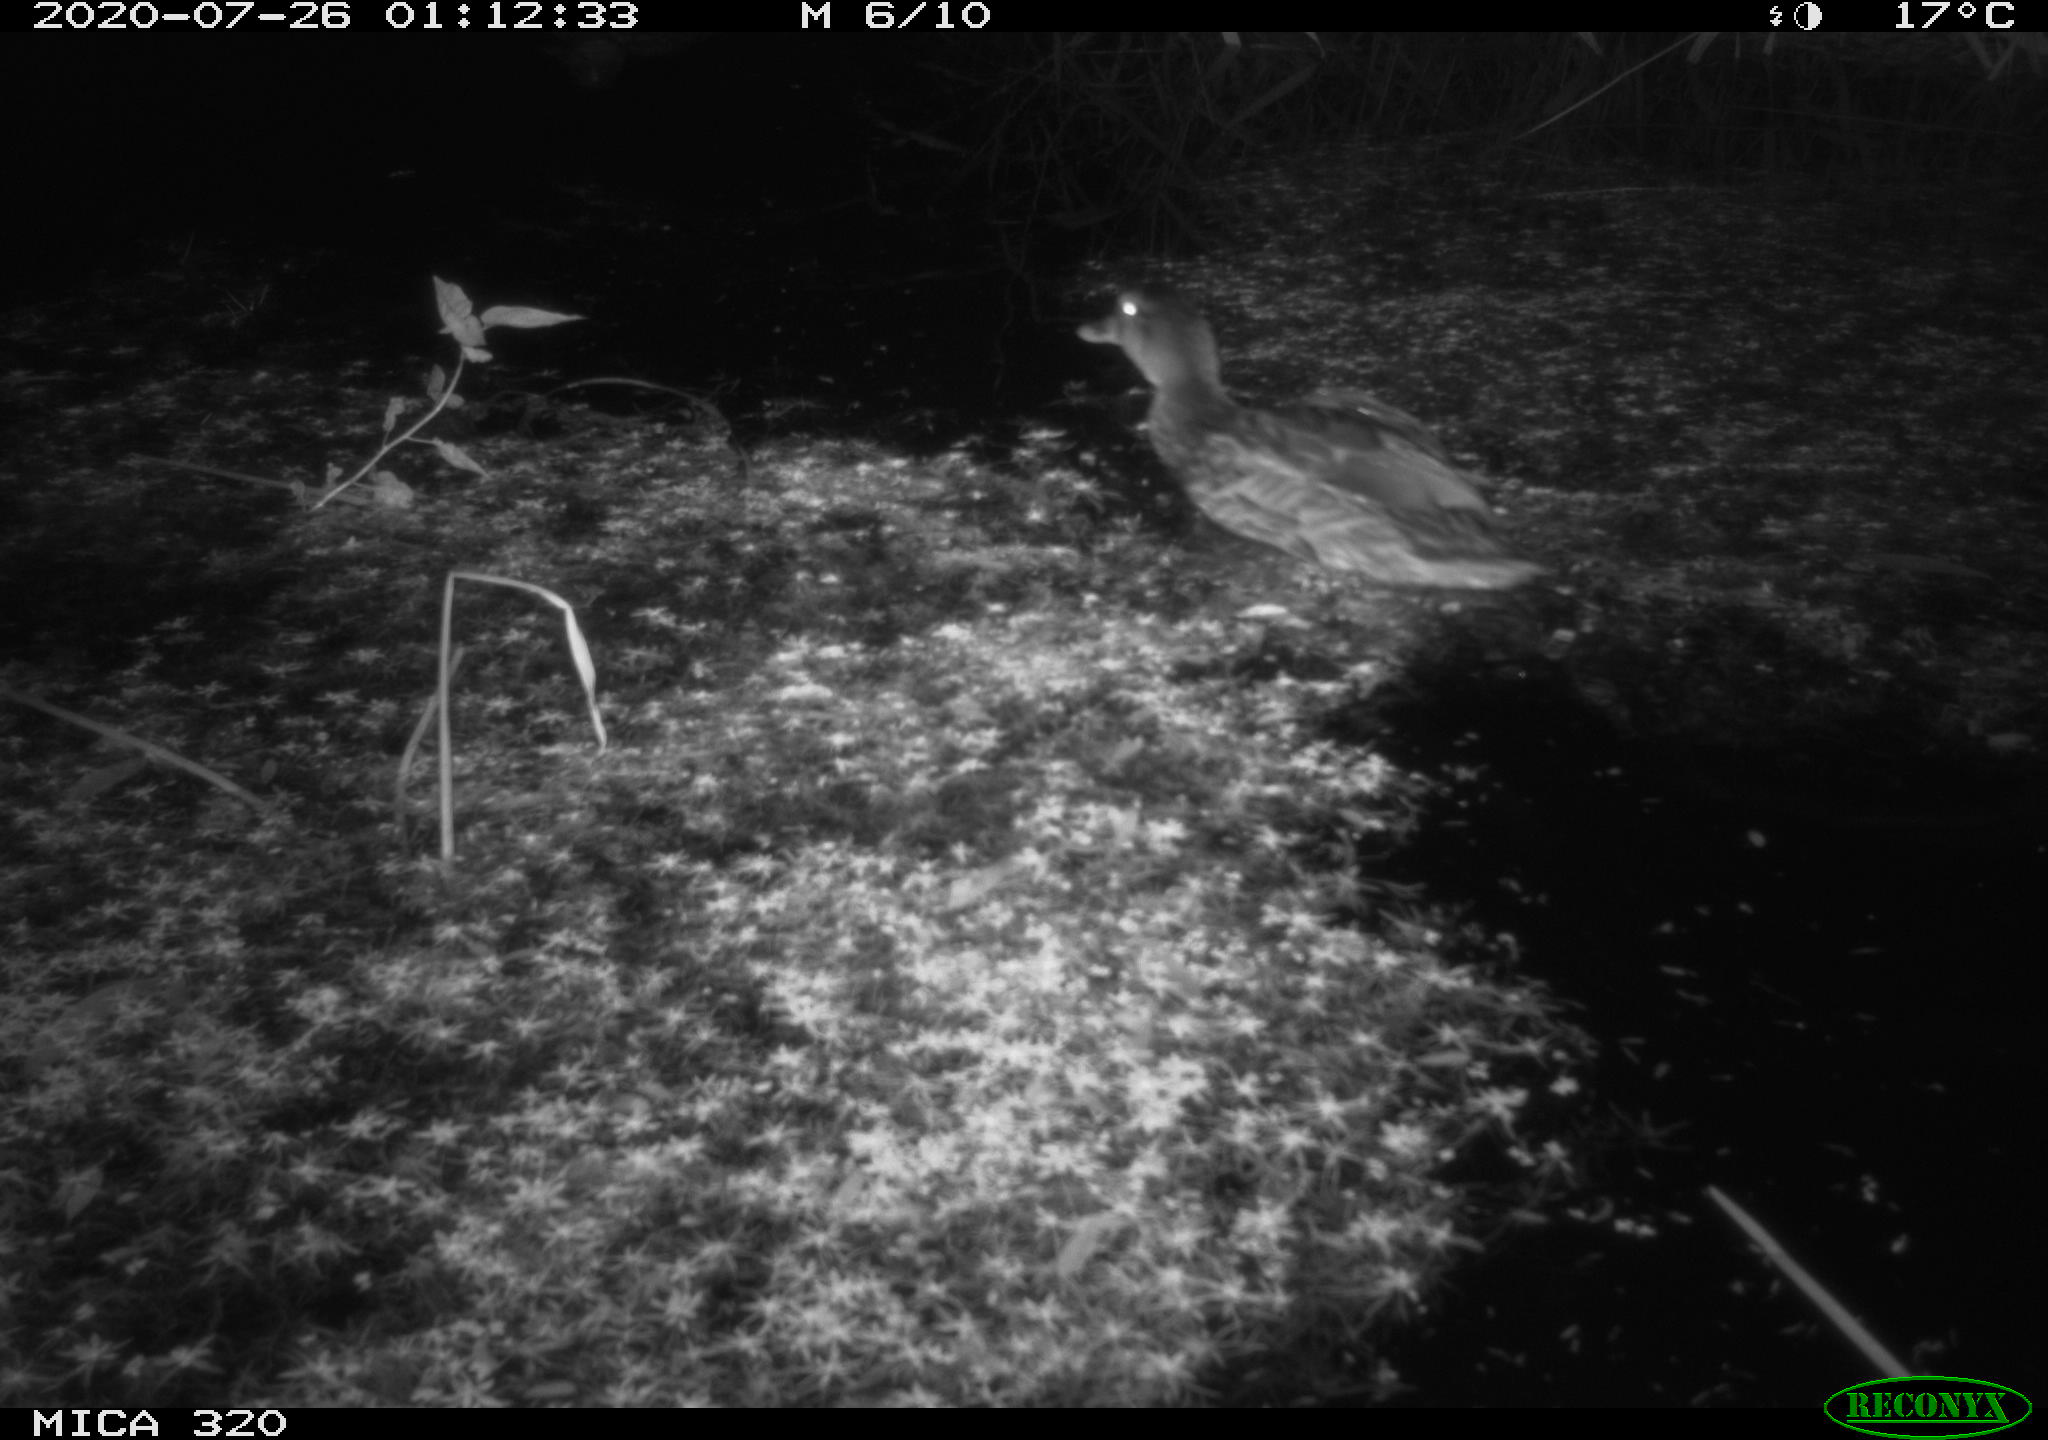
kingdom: Animalia
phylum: Chordata
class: Aves
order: Anseriformes
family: Anatidae
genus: Anas
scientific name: Anas platyrhynchos
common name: Mallard
